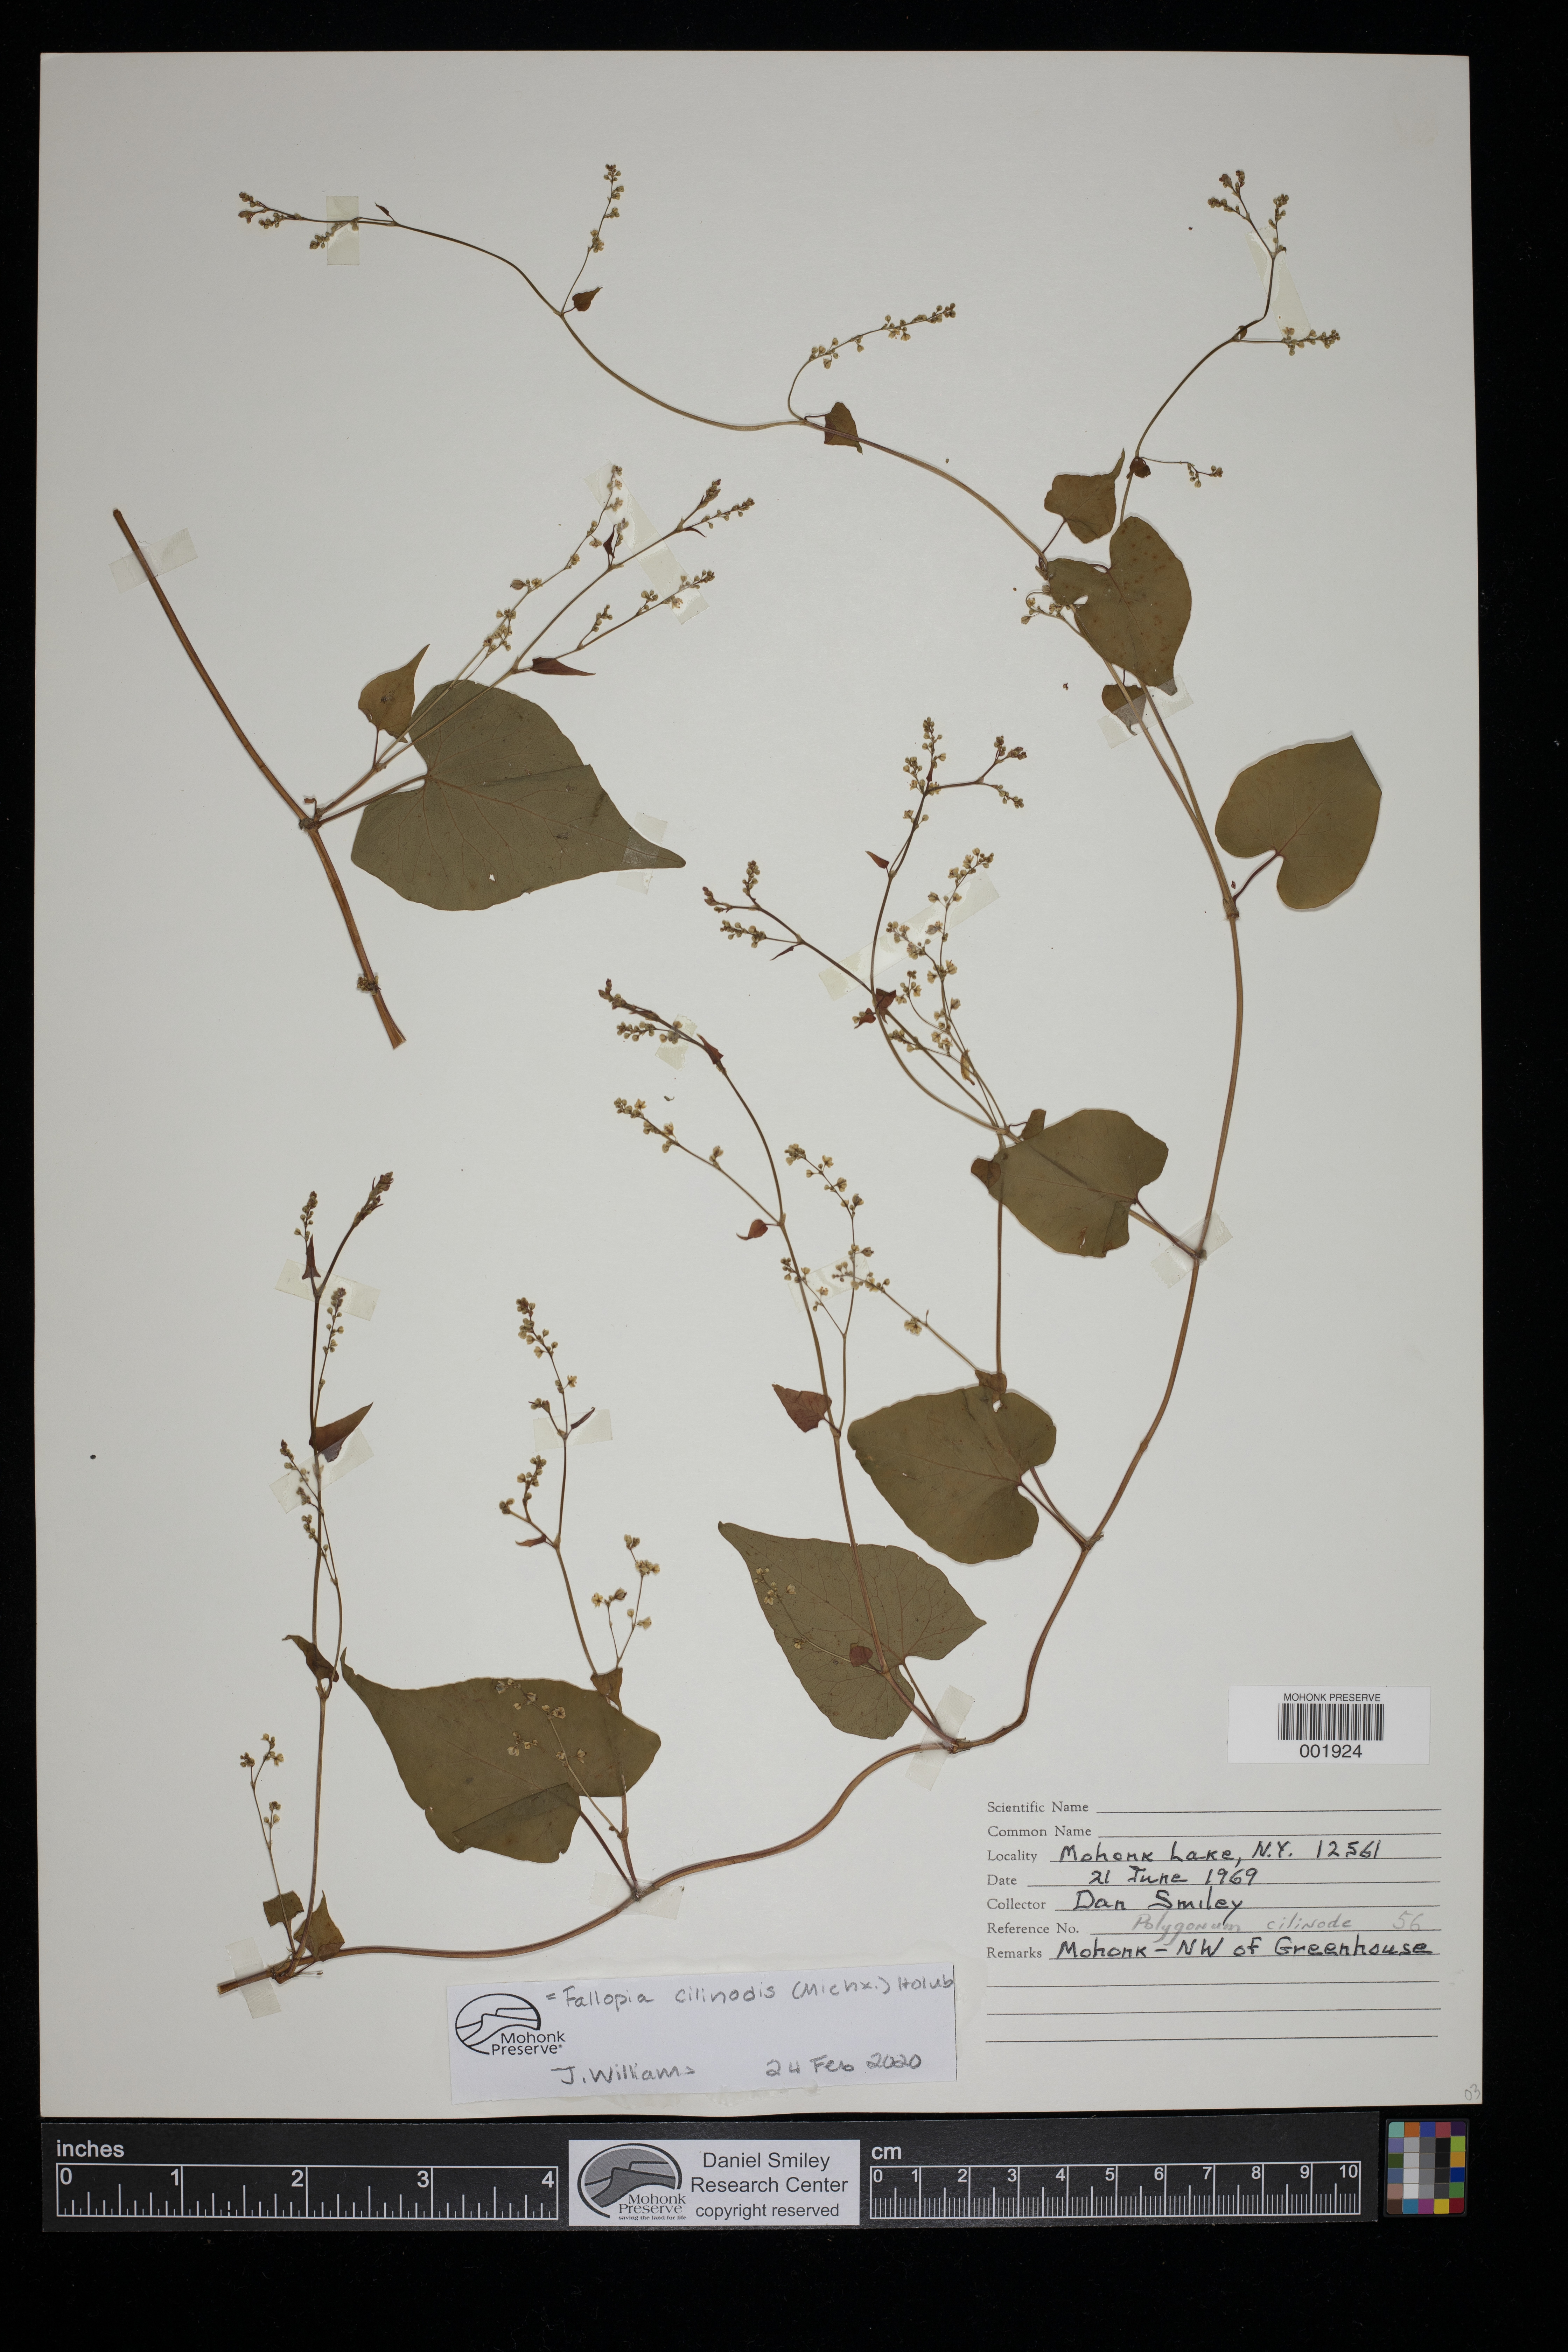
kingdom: Plantae
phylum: Tracheophyta
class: Magnoliopsida
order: Caryophyllales
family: Polygonaceae
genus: Parogonum
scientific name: Parogonum ciliinode
